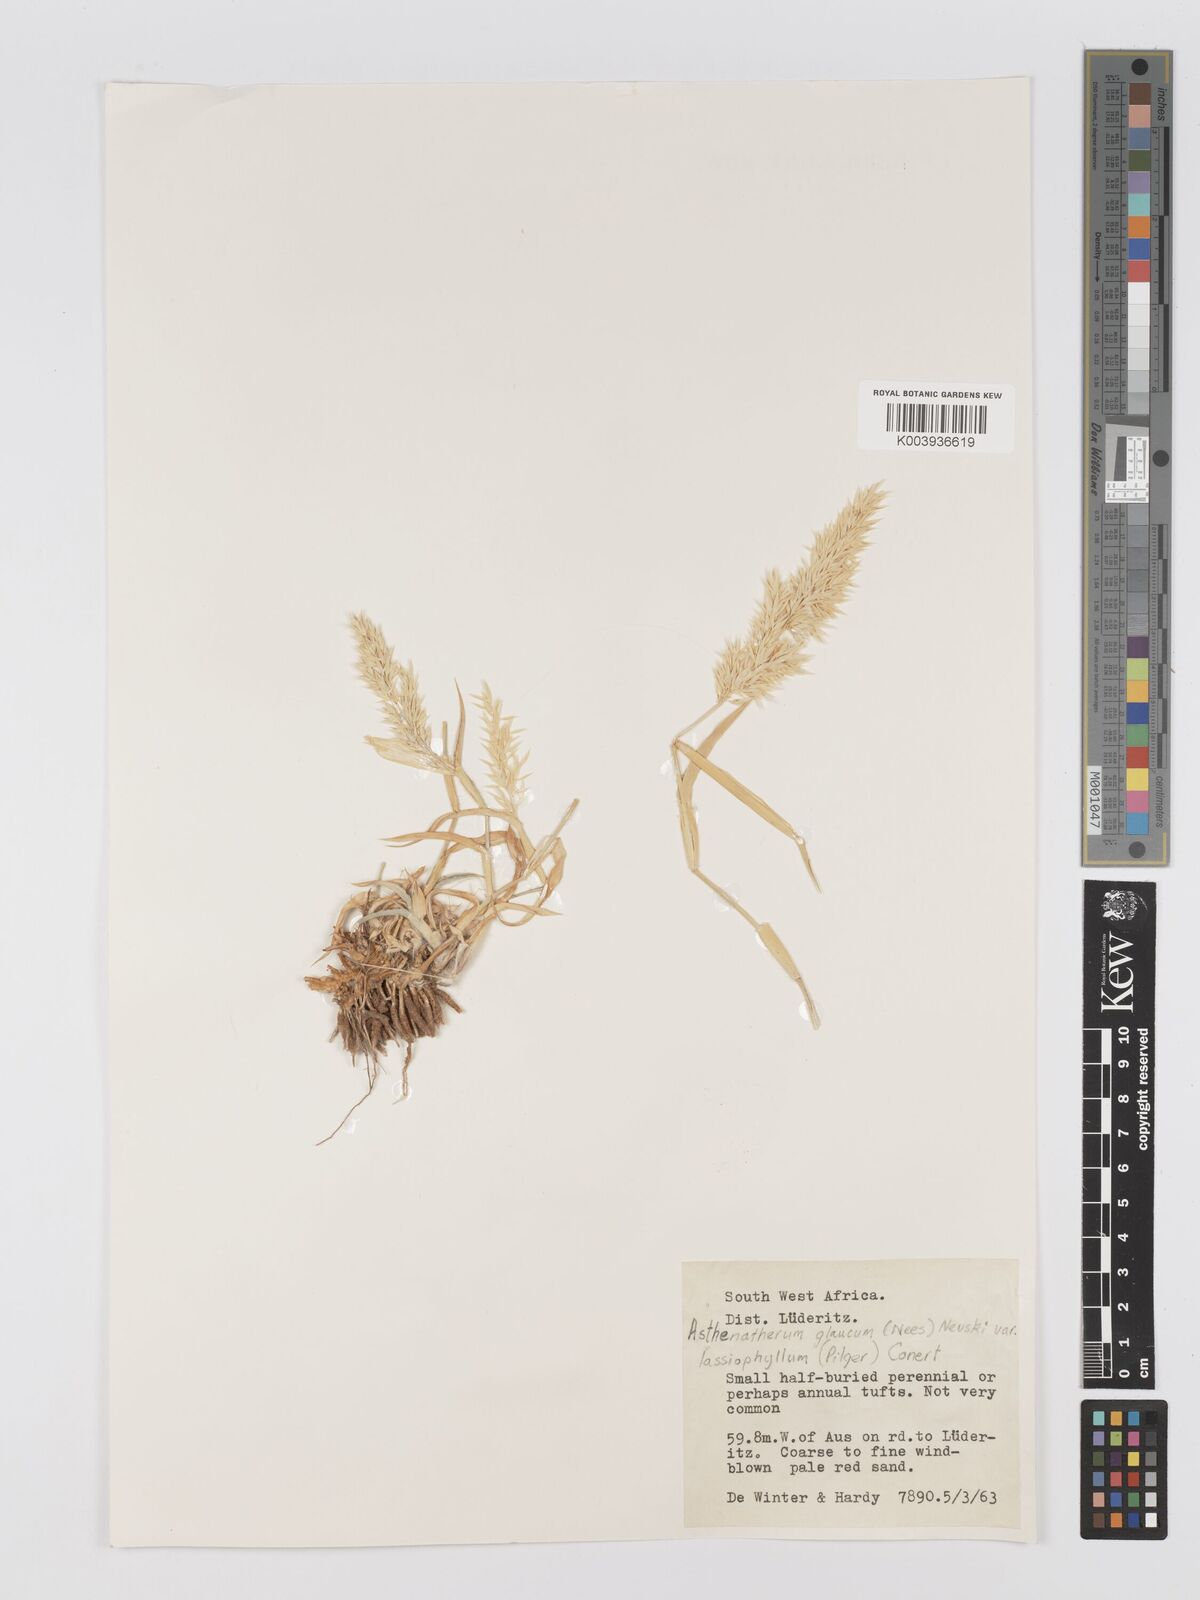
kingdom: Plantae
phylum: Tracheophyta
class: Liliopsida
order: Poales
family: Poaceae
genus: Centropodia
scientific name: Centropodia glauca
